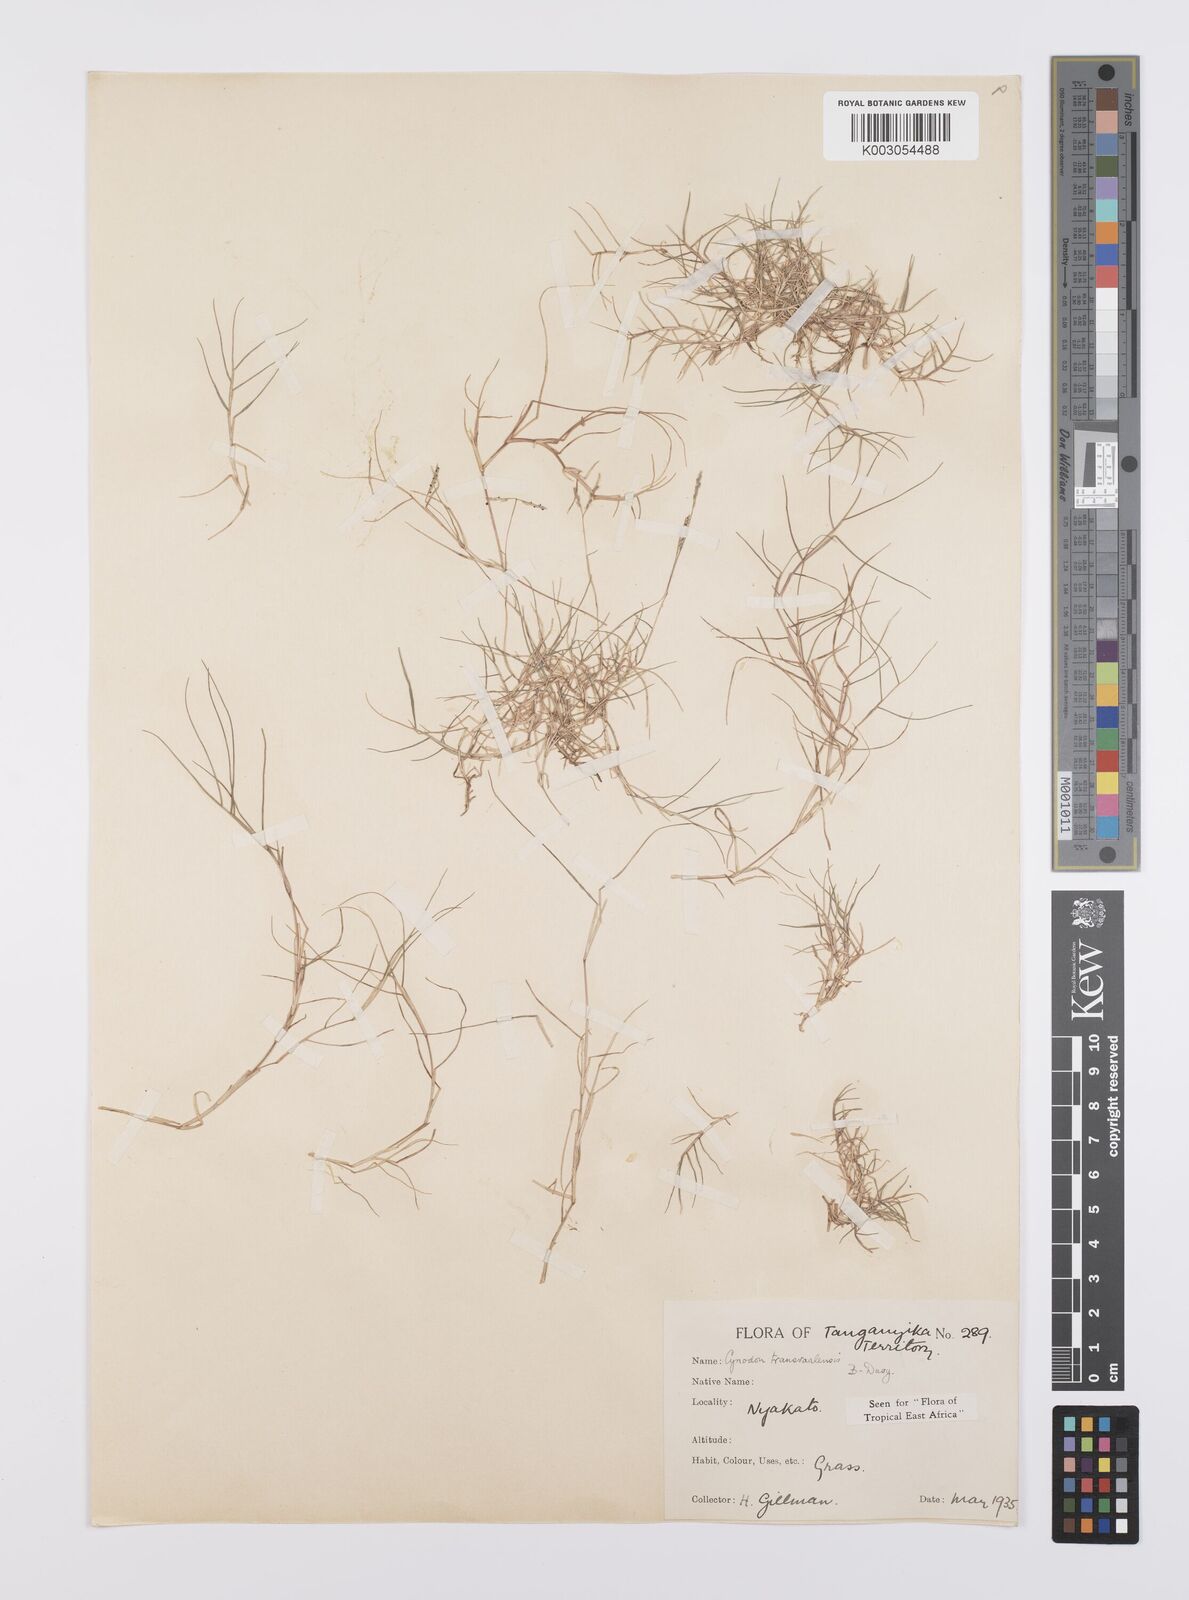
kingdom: Plantae
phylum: Tracheophyta
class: Liliopsida
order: Poales
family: Poaceae
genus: Cynodon
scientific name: Cynodon transvaalensis
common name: African bermuda grass
